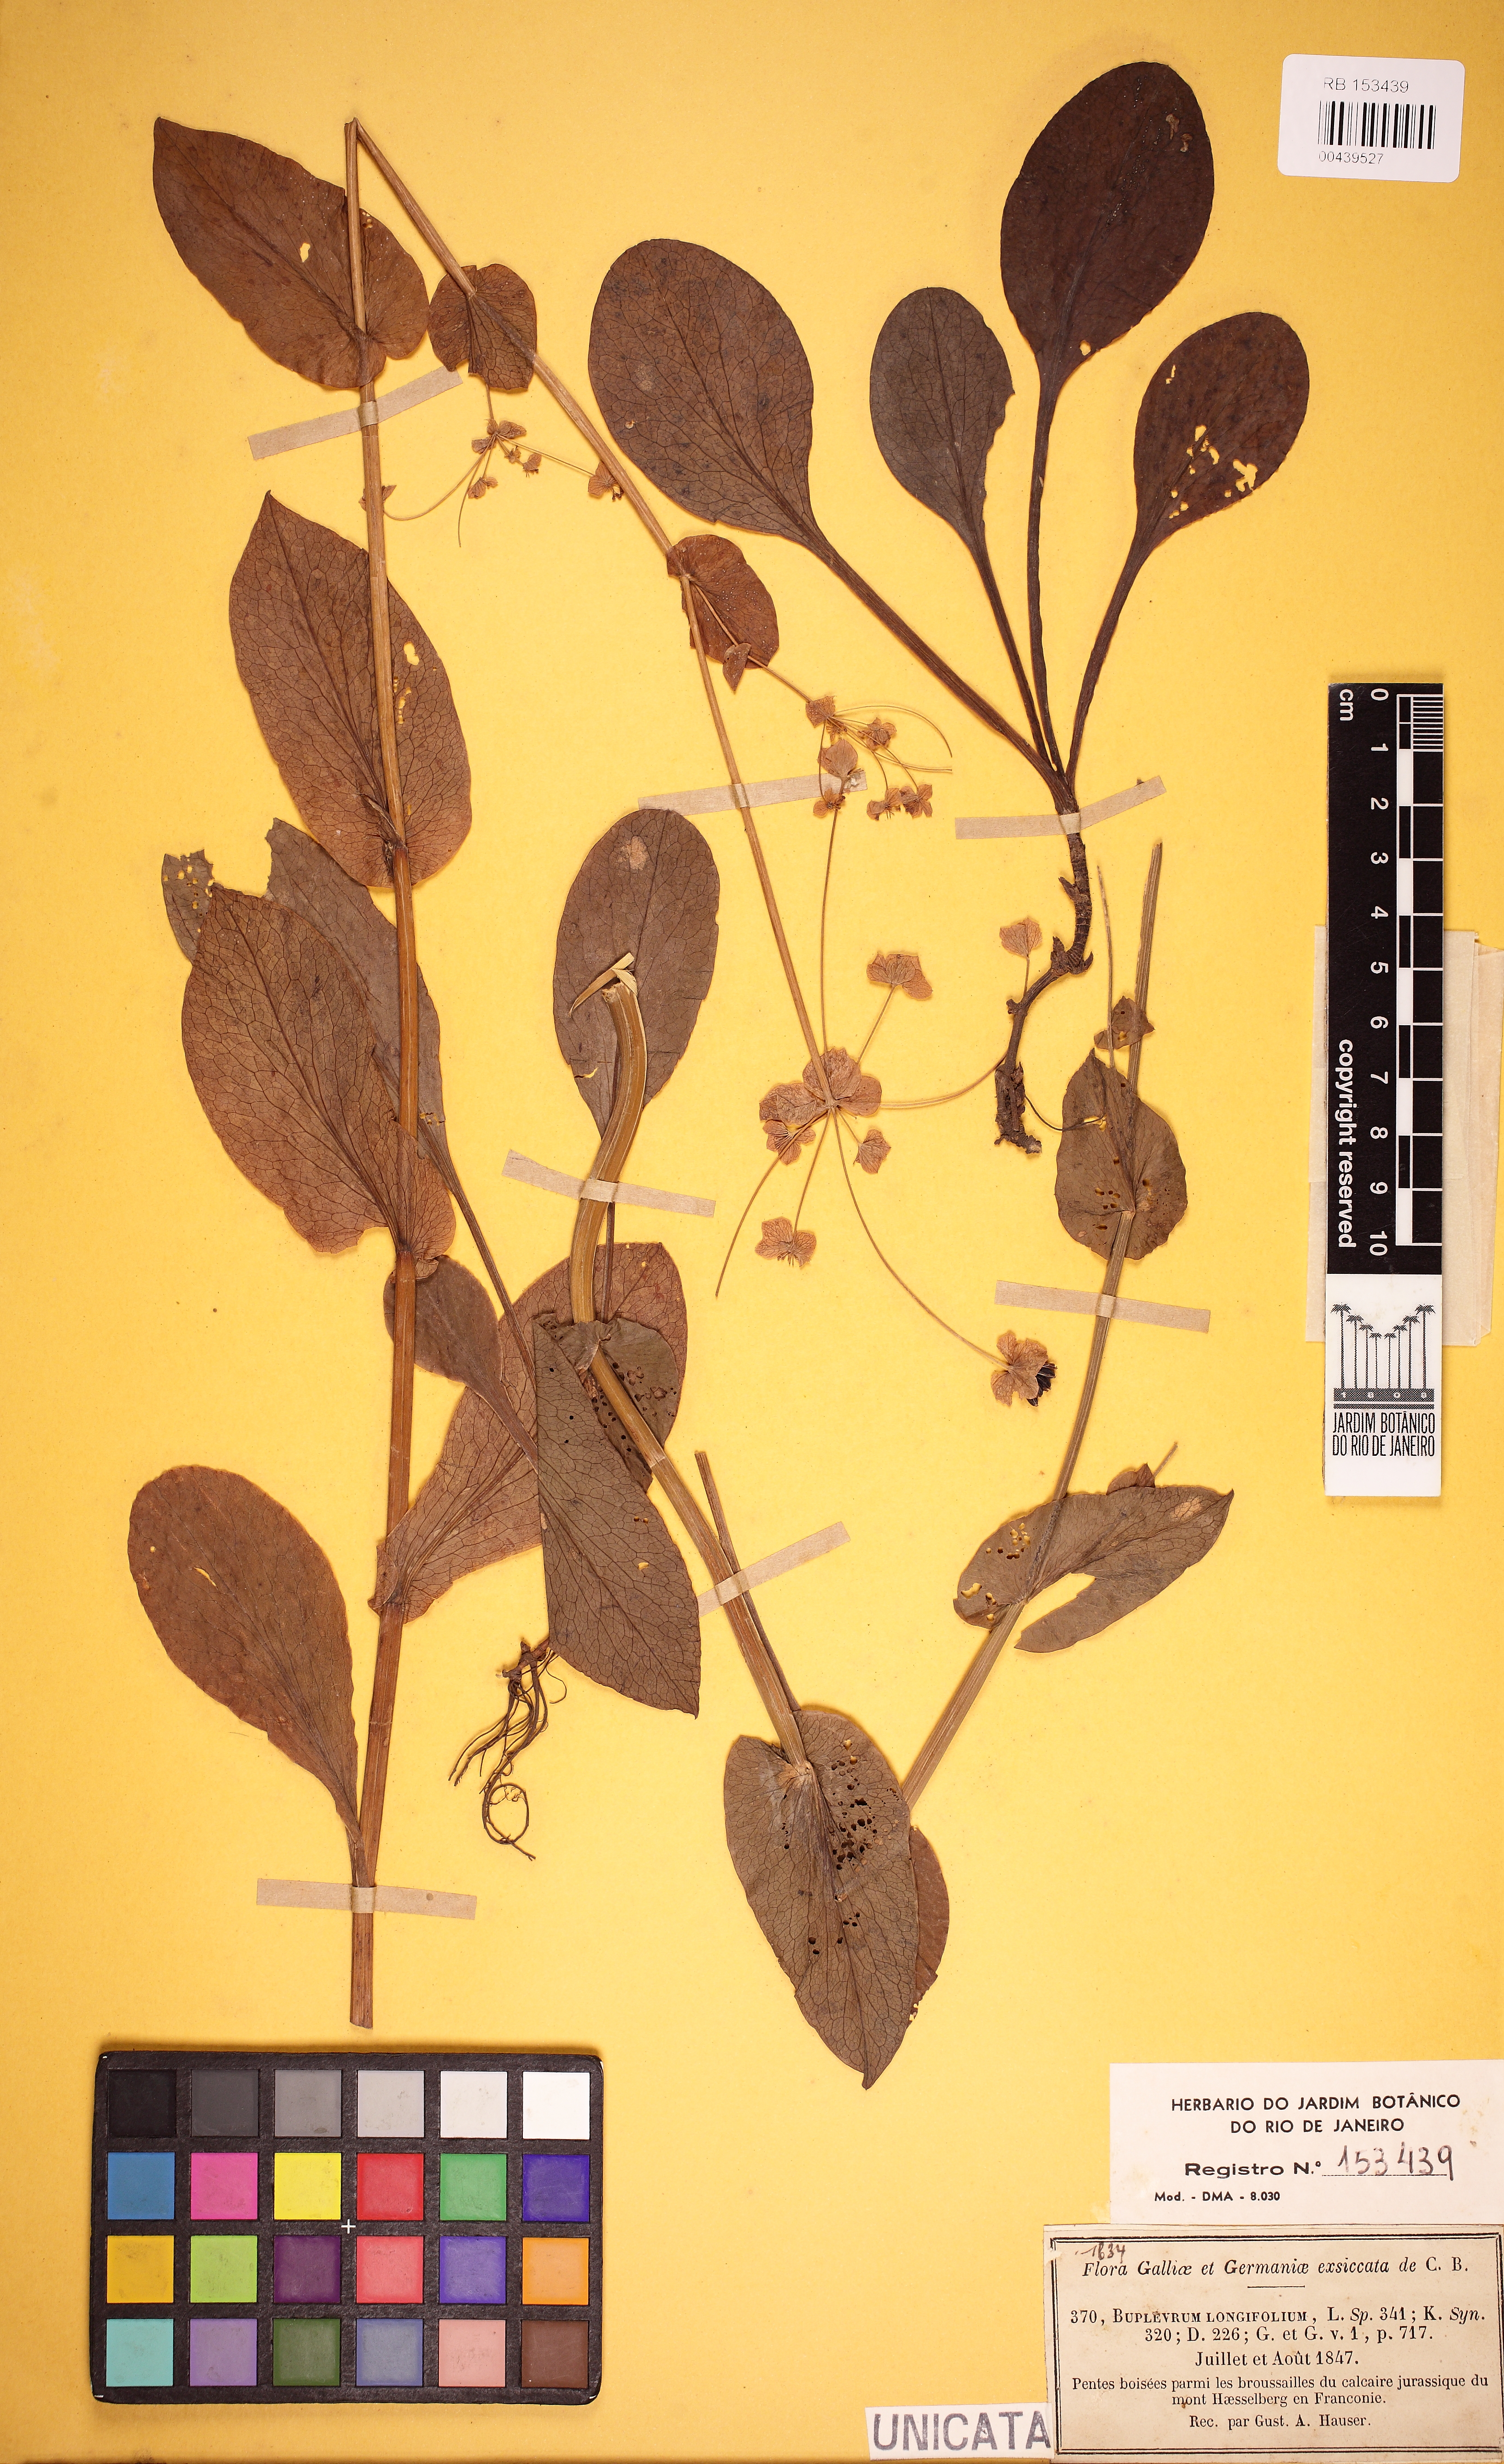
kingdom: Plantae
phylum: Tracheophyta
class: Magnoliopsida
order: Apiales
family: Apiaceae
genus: Bupleurum
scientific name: Bupleurum longifolium
